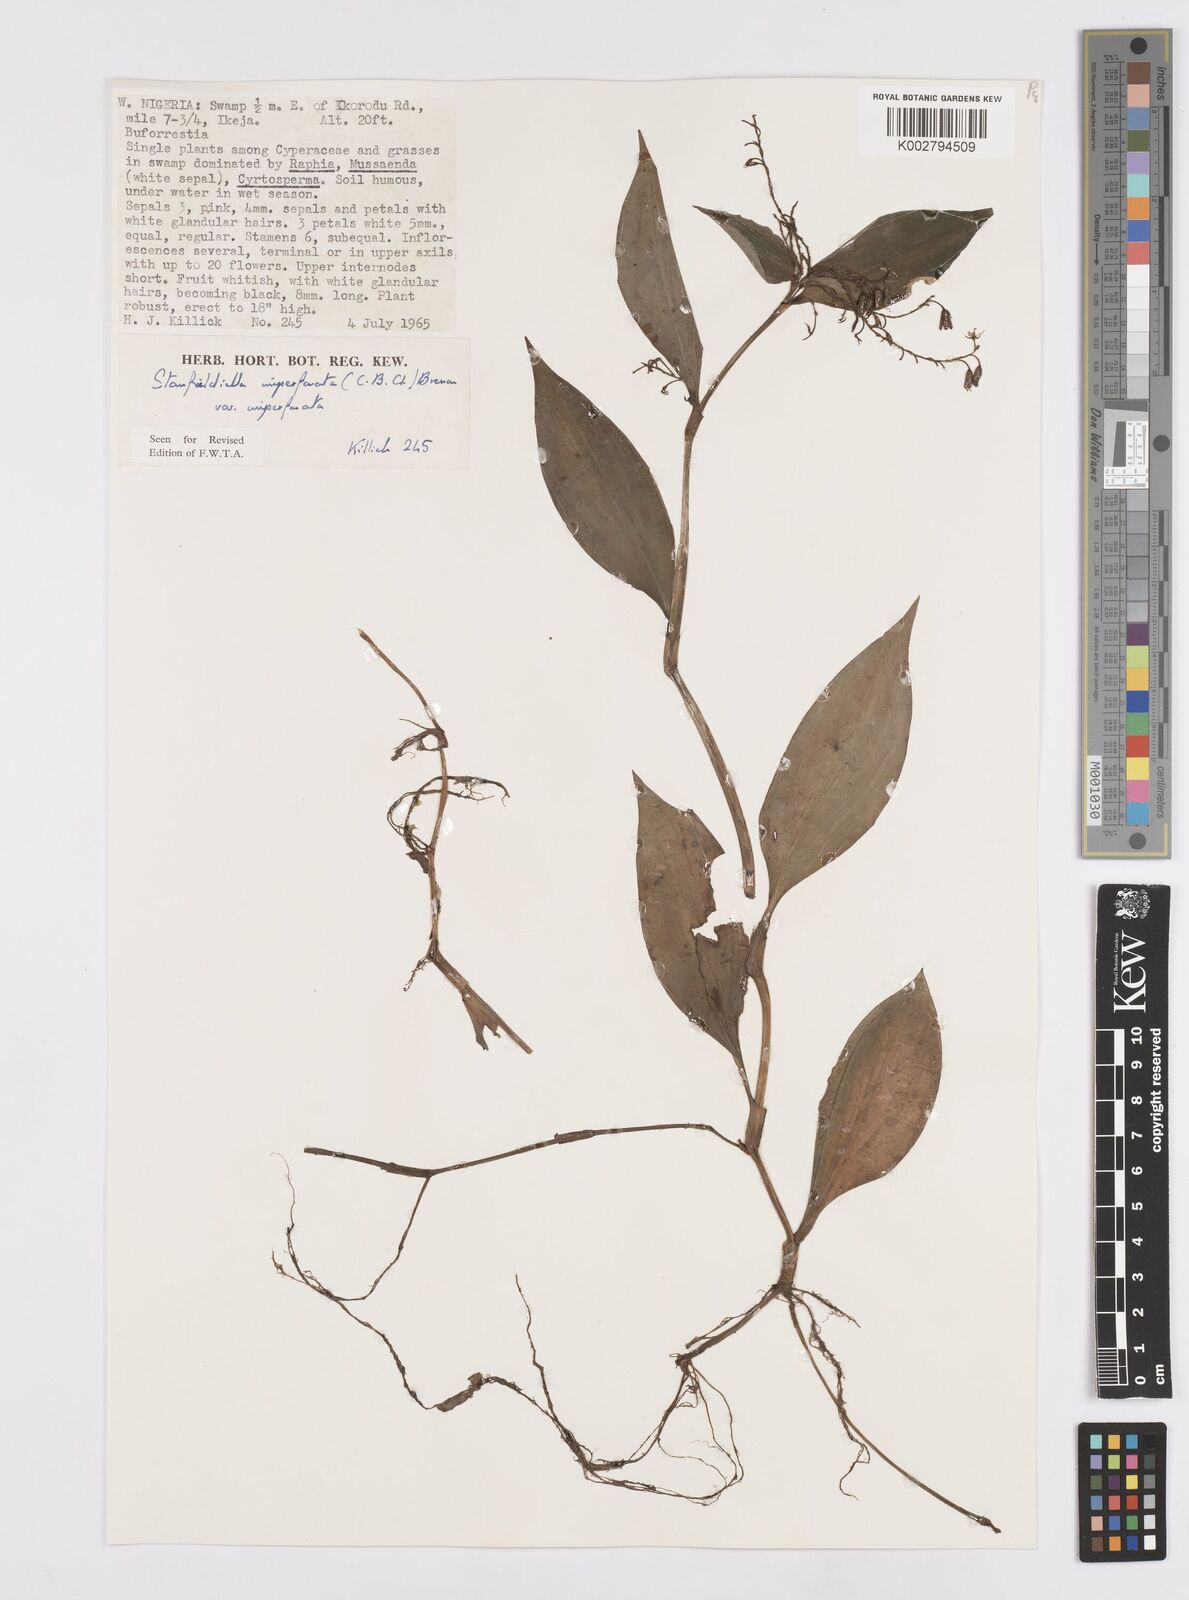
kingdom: Plantae
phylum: Tracheophyta
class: Liliopsida
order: Commelinales
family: Commelinaceae
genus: Stanfieldiella
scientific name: Stanfieldiella imperforata
